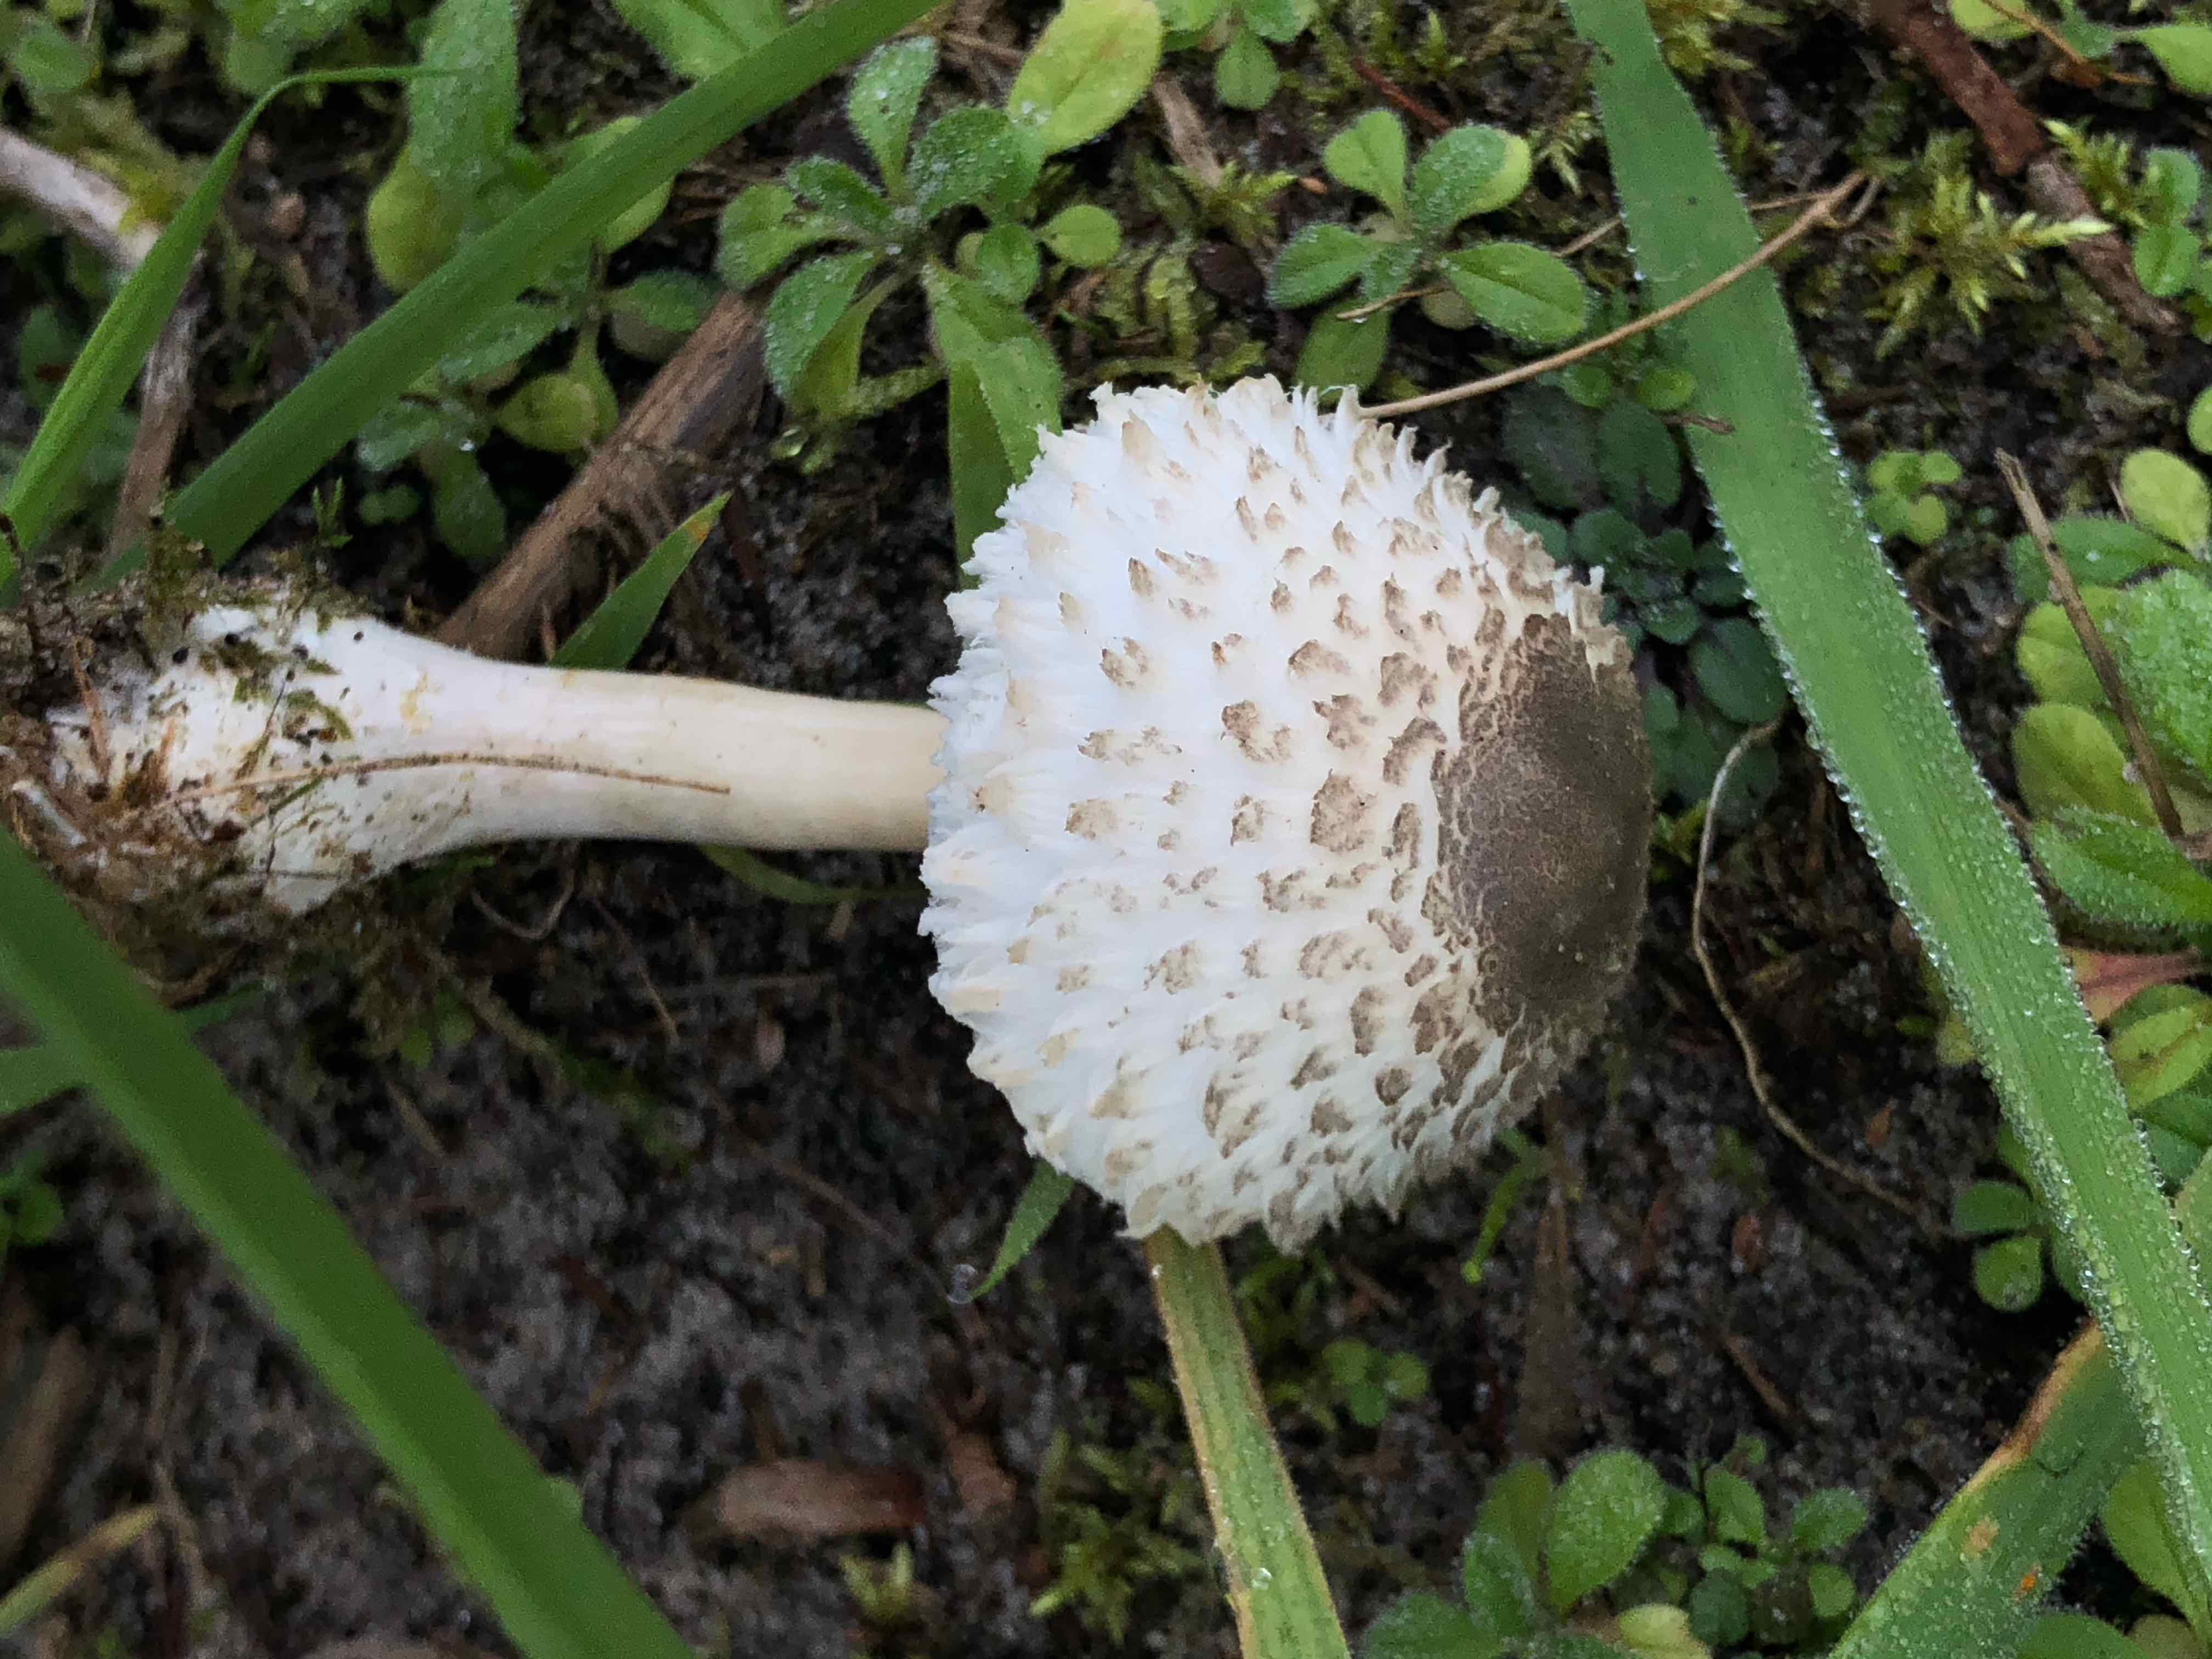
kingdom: Fungi
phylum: Basidiomycota
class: Agaricomycetes
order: Agaricales
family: Agaricaceae
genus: Leucoagaricus
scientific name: Leucoagaricus nympharum
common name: gran-silkehat
